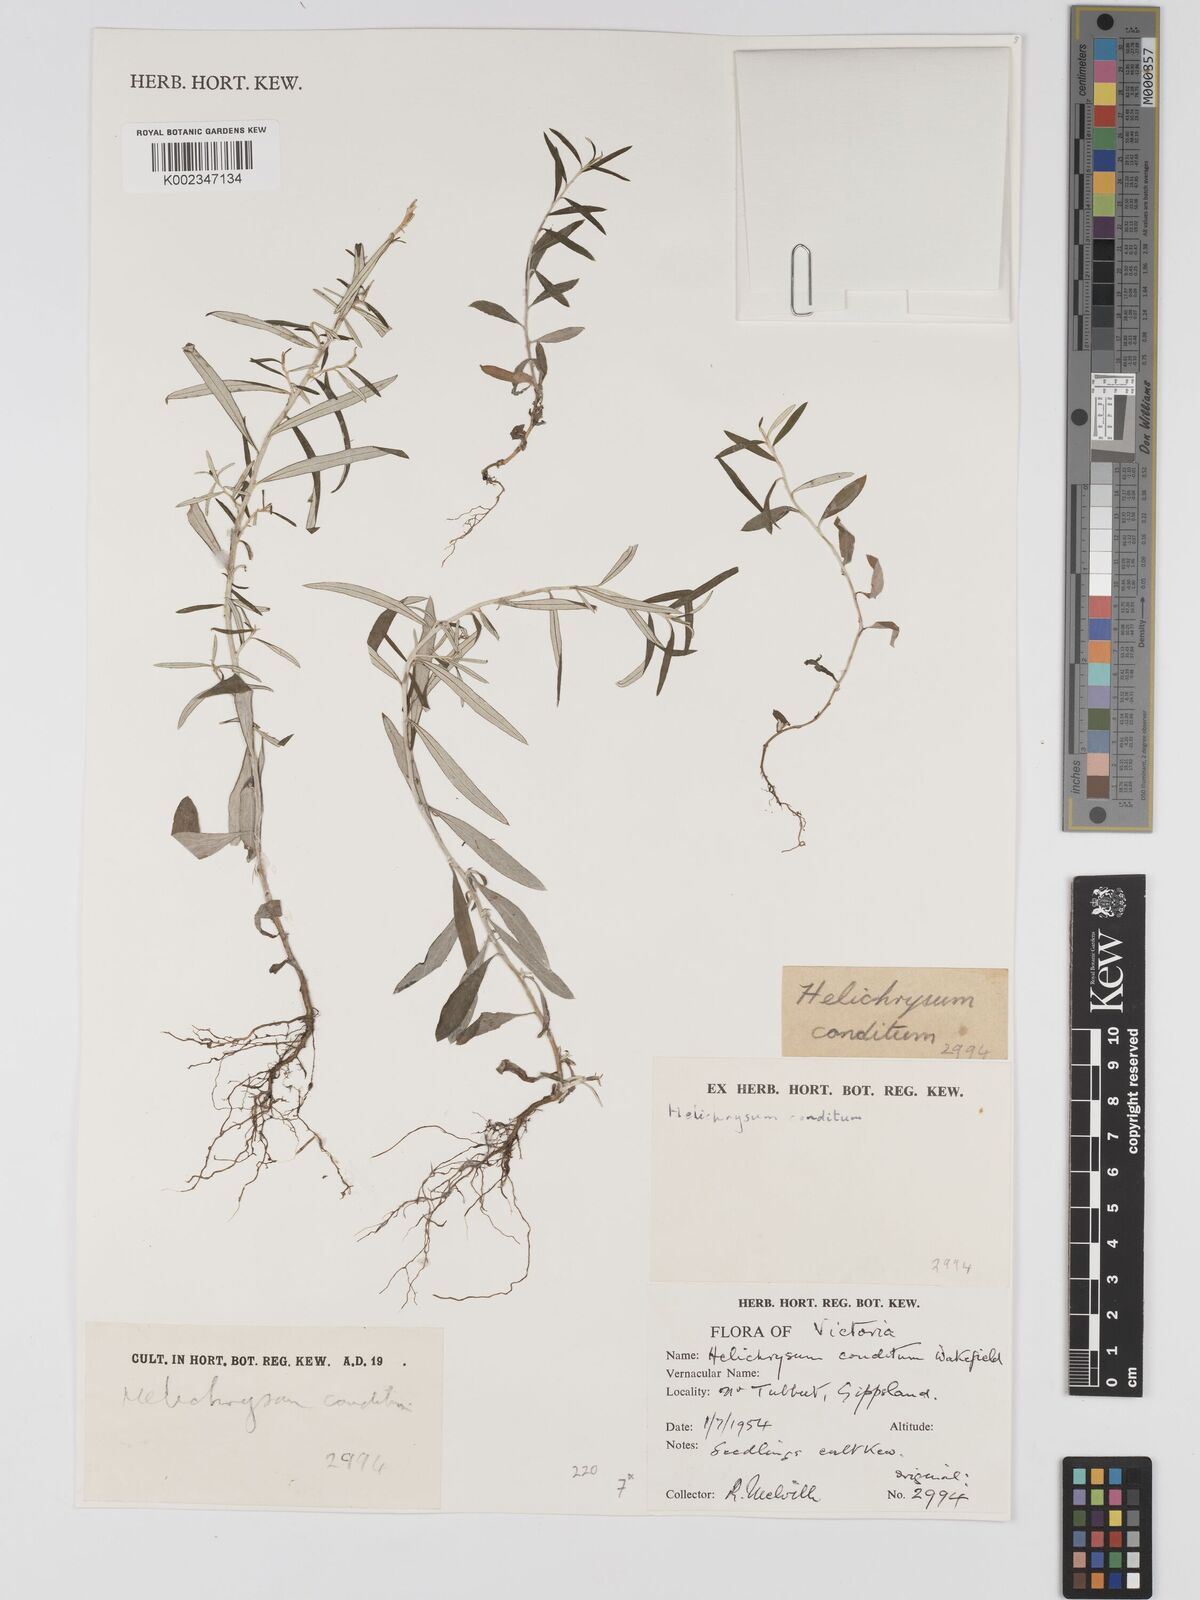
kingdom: Plantae
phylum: Tracheophyta
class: Magnoliopsida
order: Asterales
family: Asteraceae
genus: Ozothamnus
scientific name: Ozothamnus conditus
